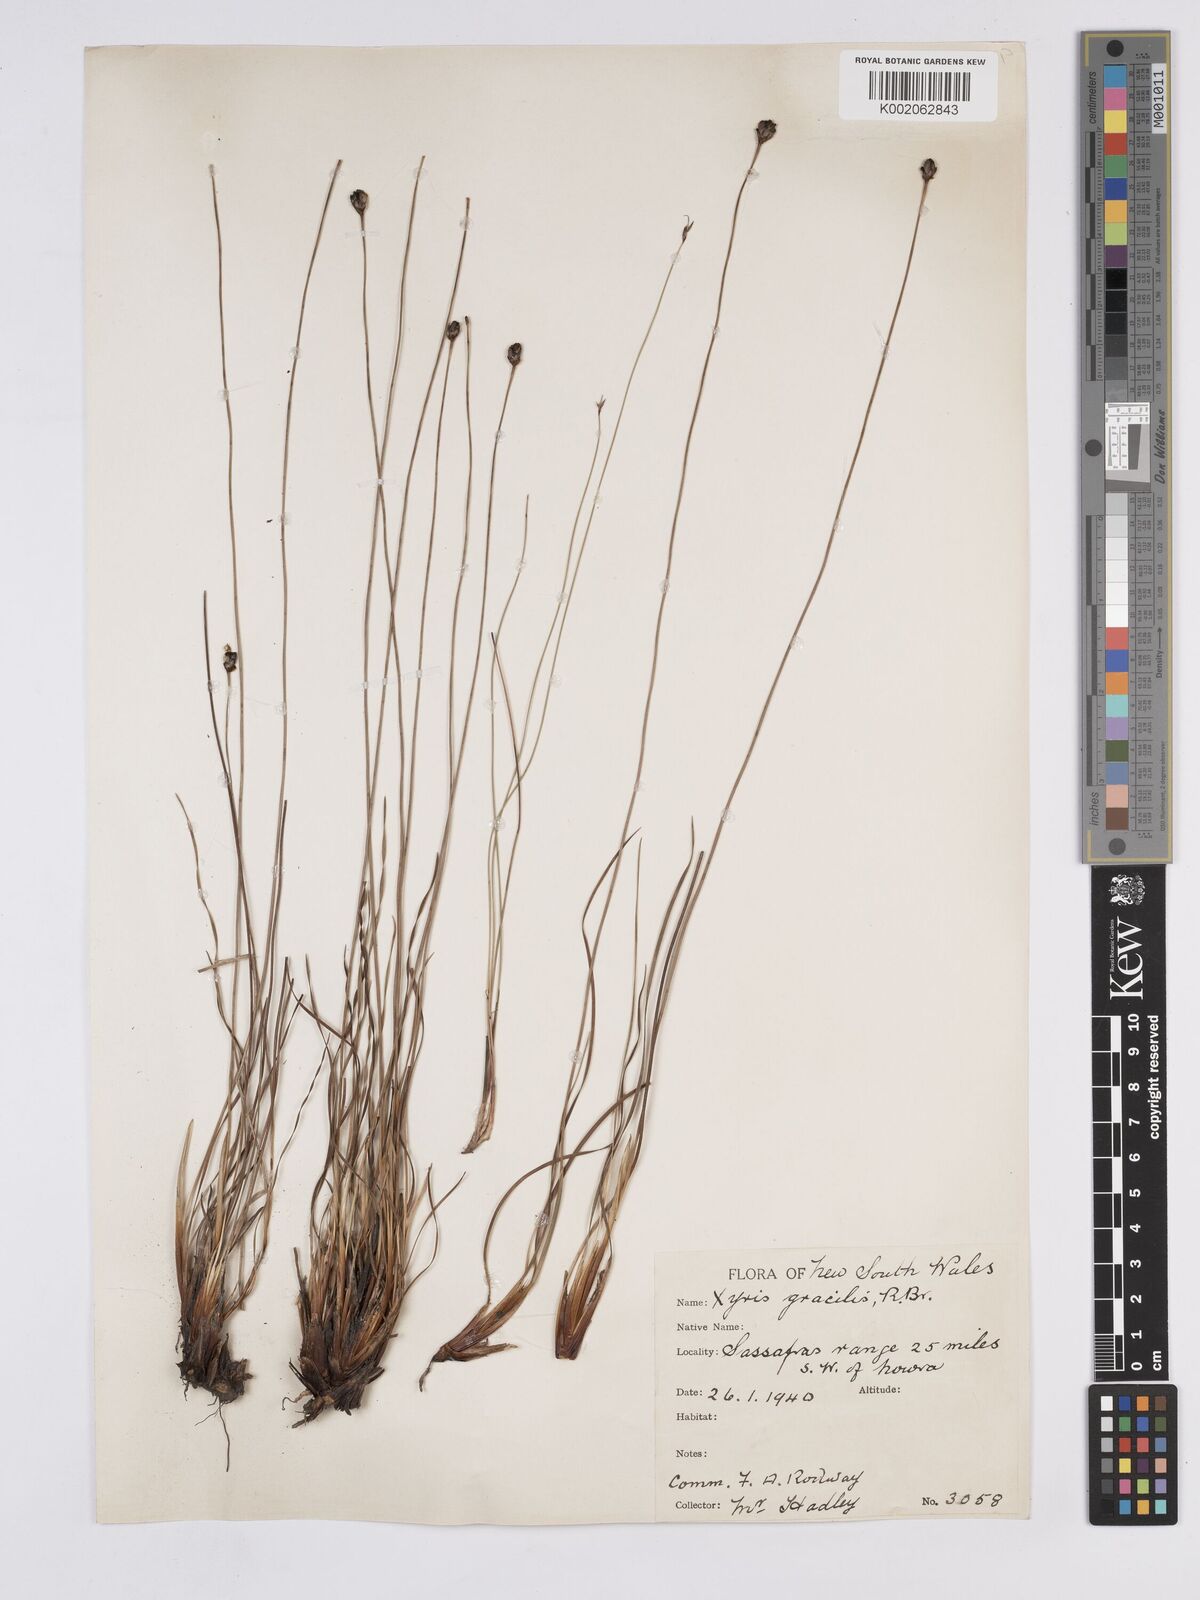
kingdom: Plantae
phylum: Tracheophyta
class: Liliopsida
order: Poales
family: Xyridaceae
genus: Xyris
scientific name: Xyris gracilis
